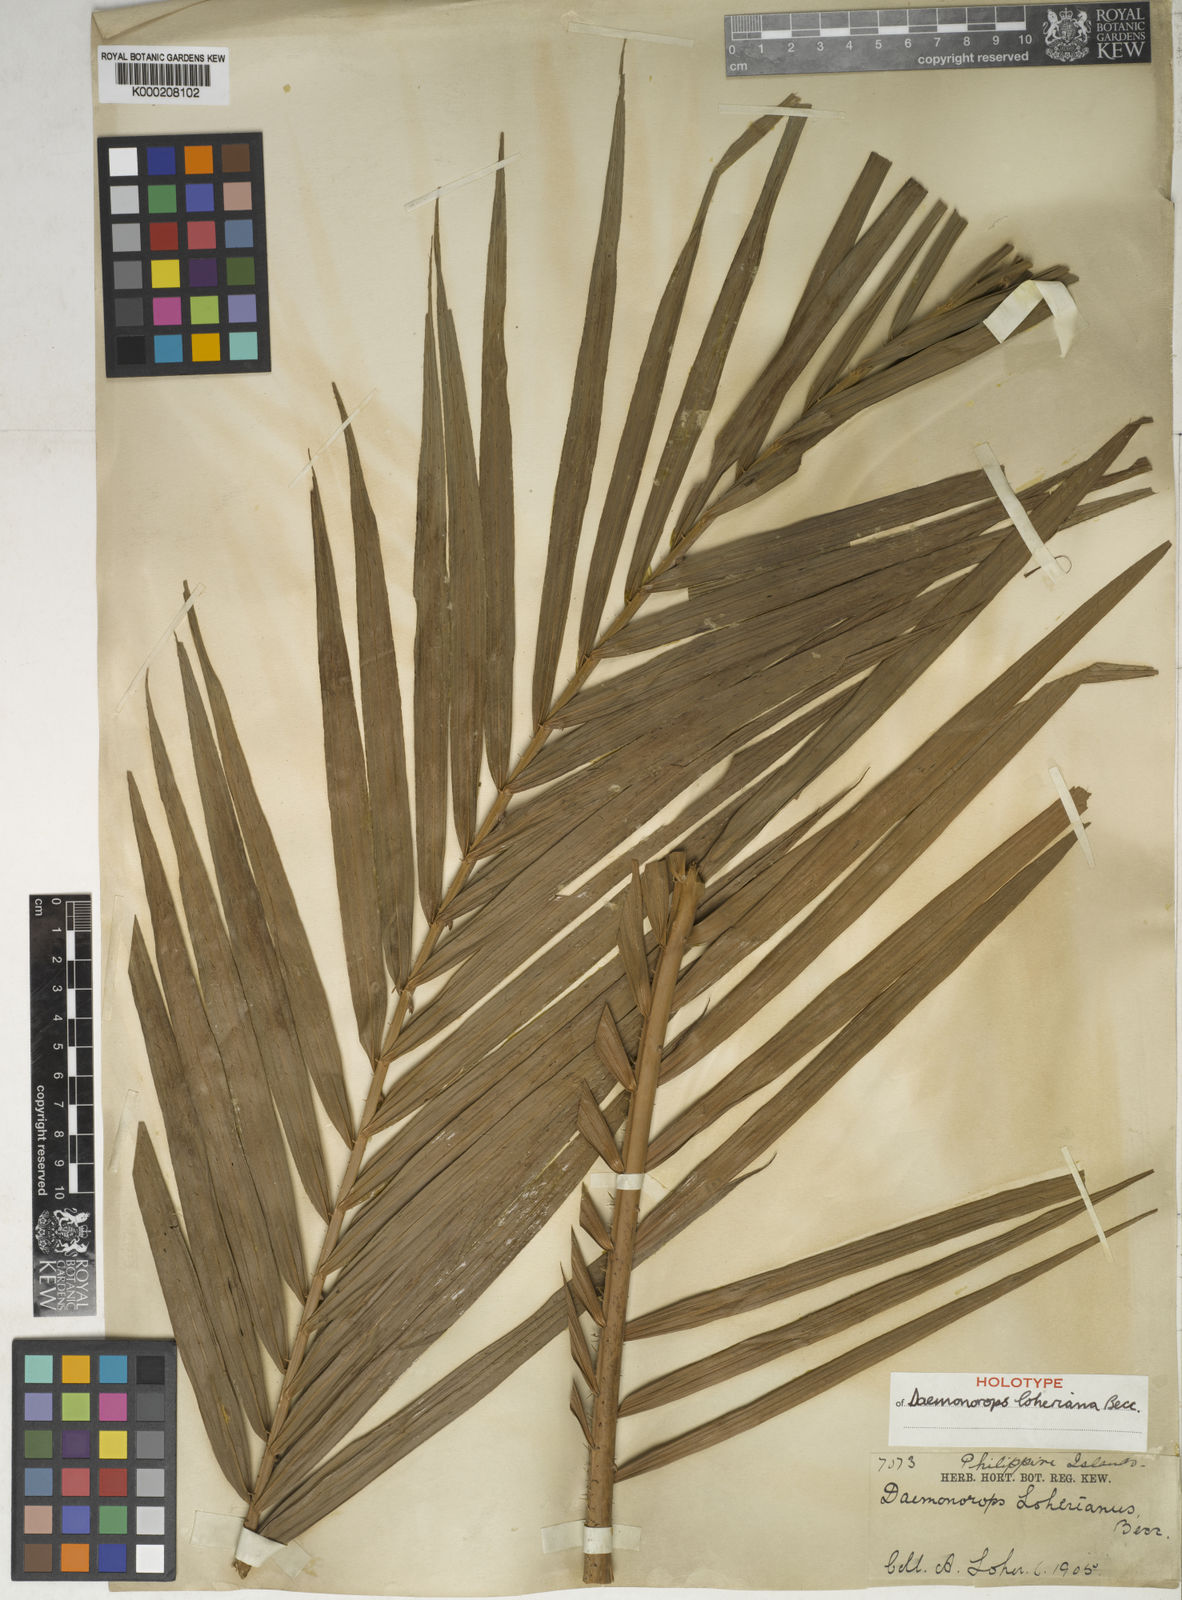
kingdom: Plantae
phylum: Tracheophyta
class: Liliopsida
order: Arecales
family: Arecaceae
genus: Calamus
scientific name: Calamus loherianus
